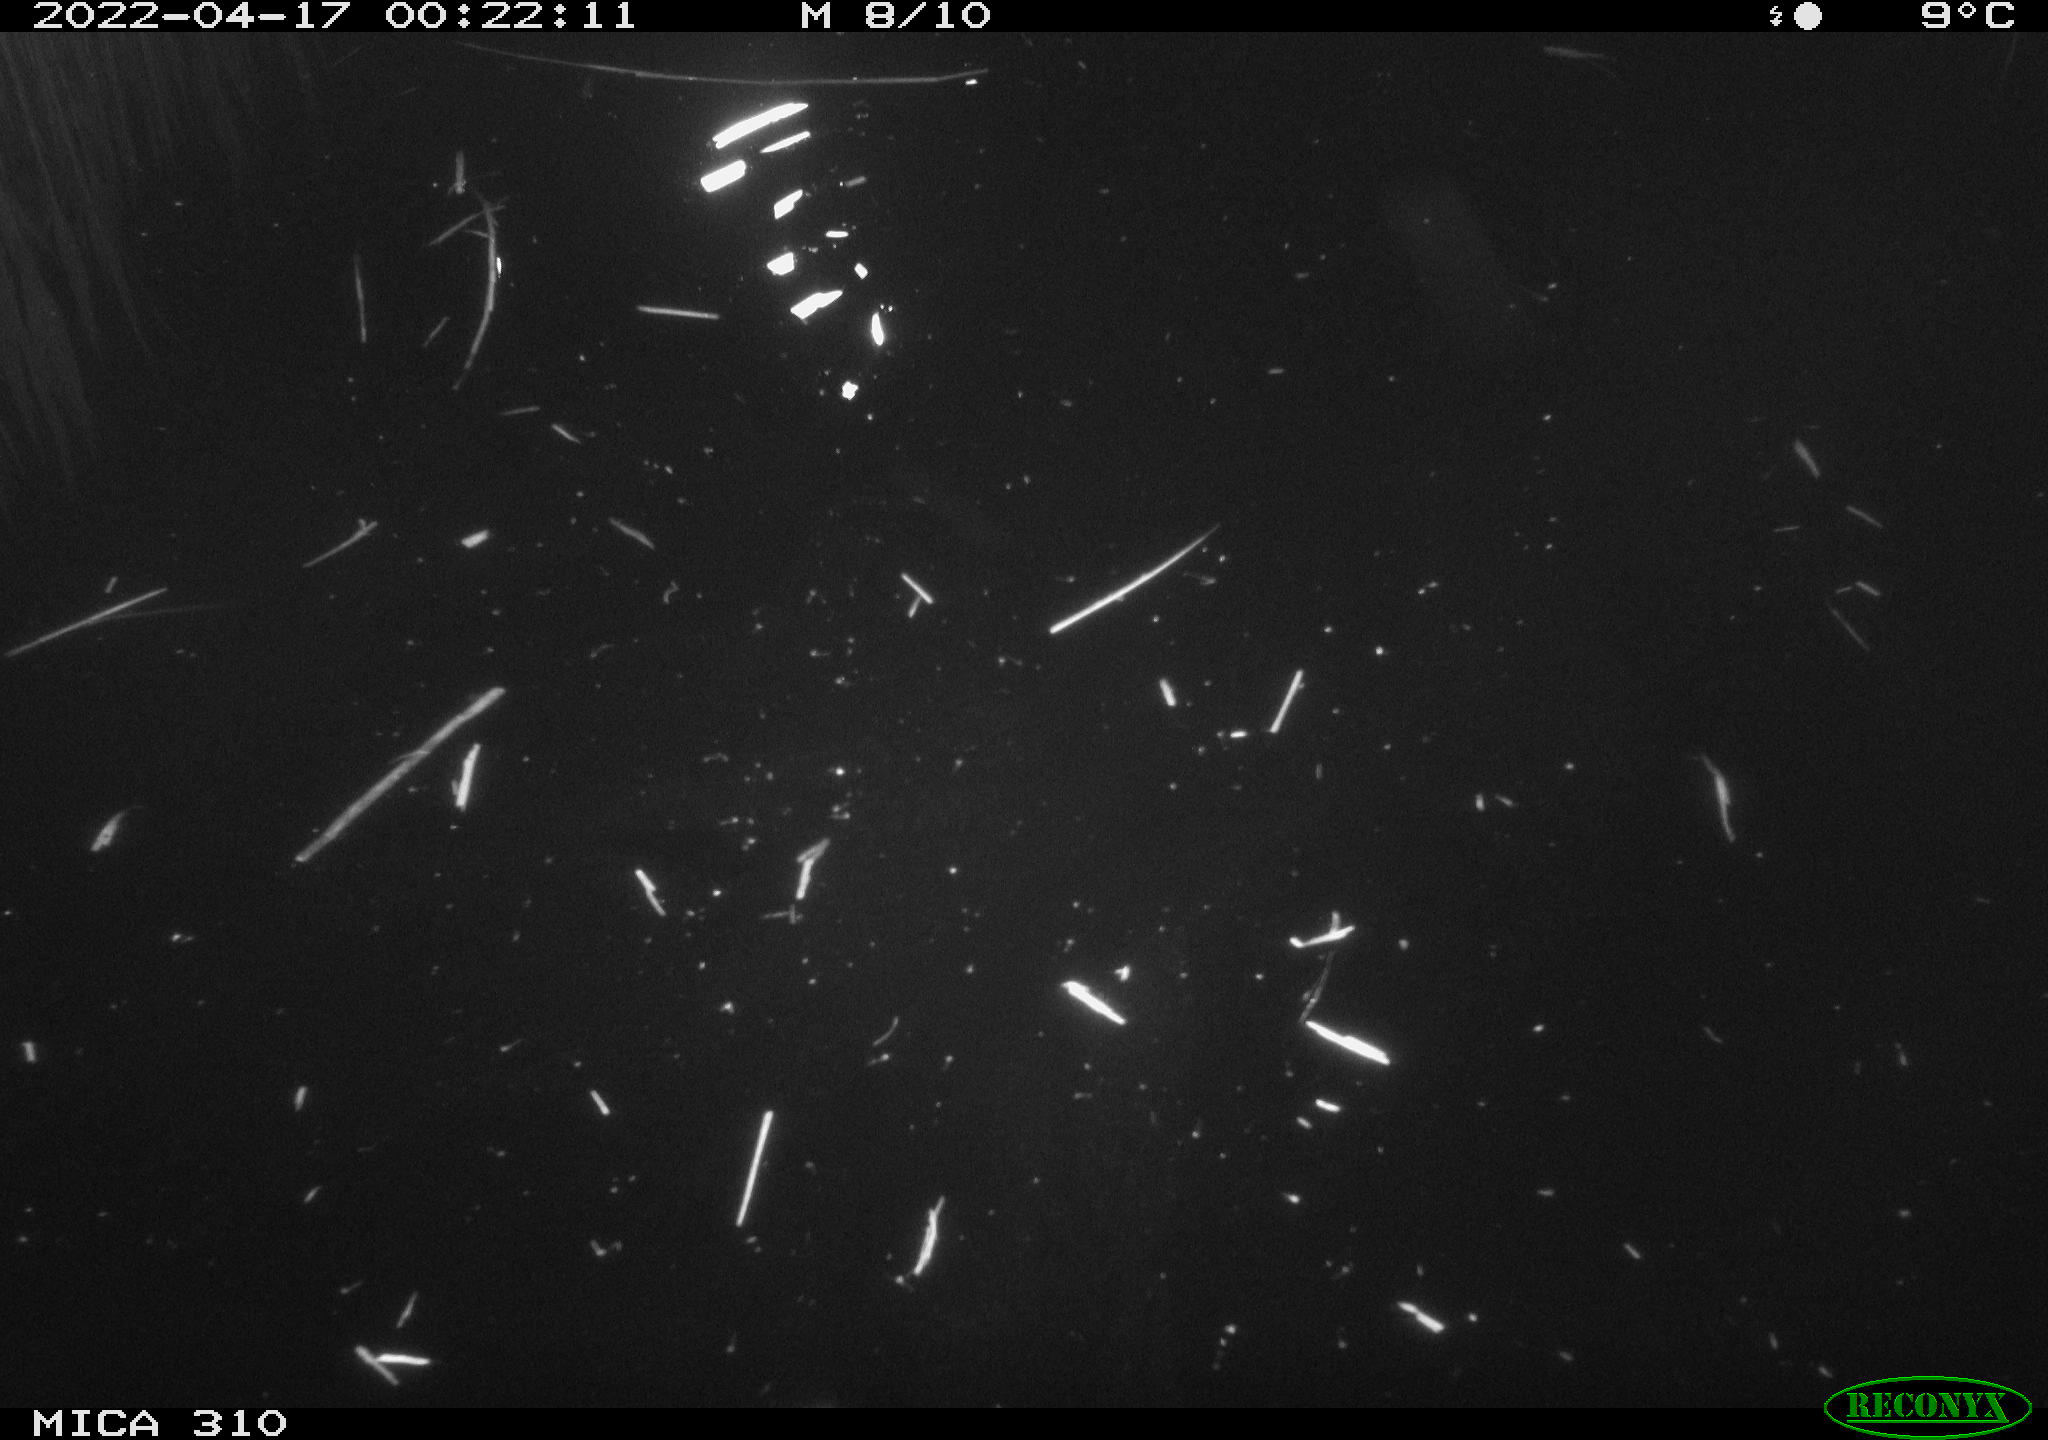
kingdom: Animalia
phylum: Chordata
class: Aves
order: Anseriformes
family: Anatidae
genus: Anas
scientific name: Anas platyrhynchos
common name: Mallard
